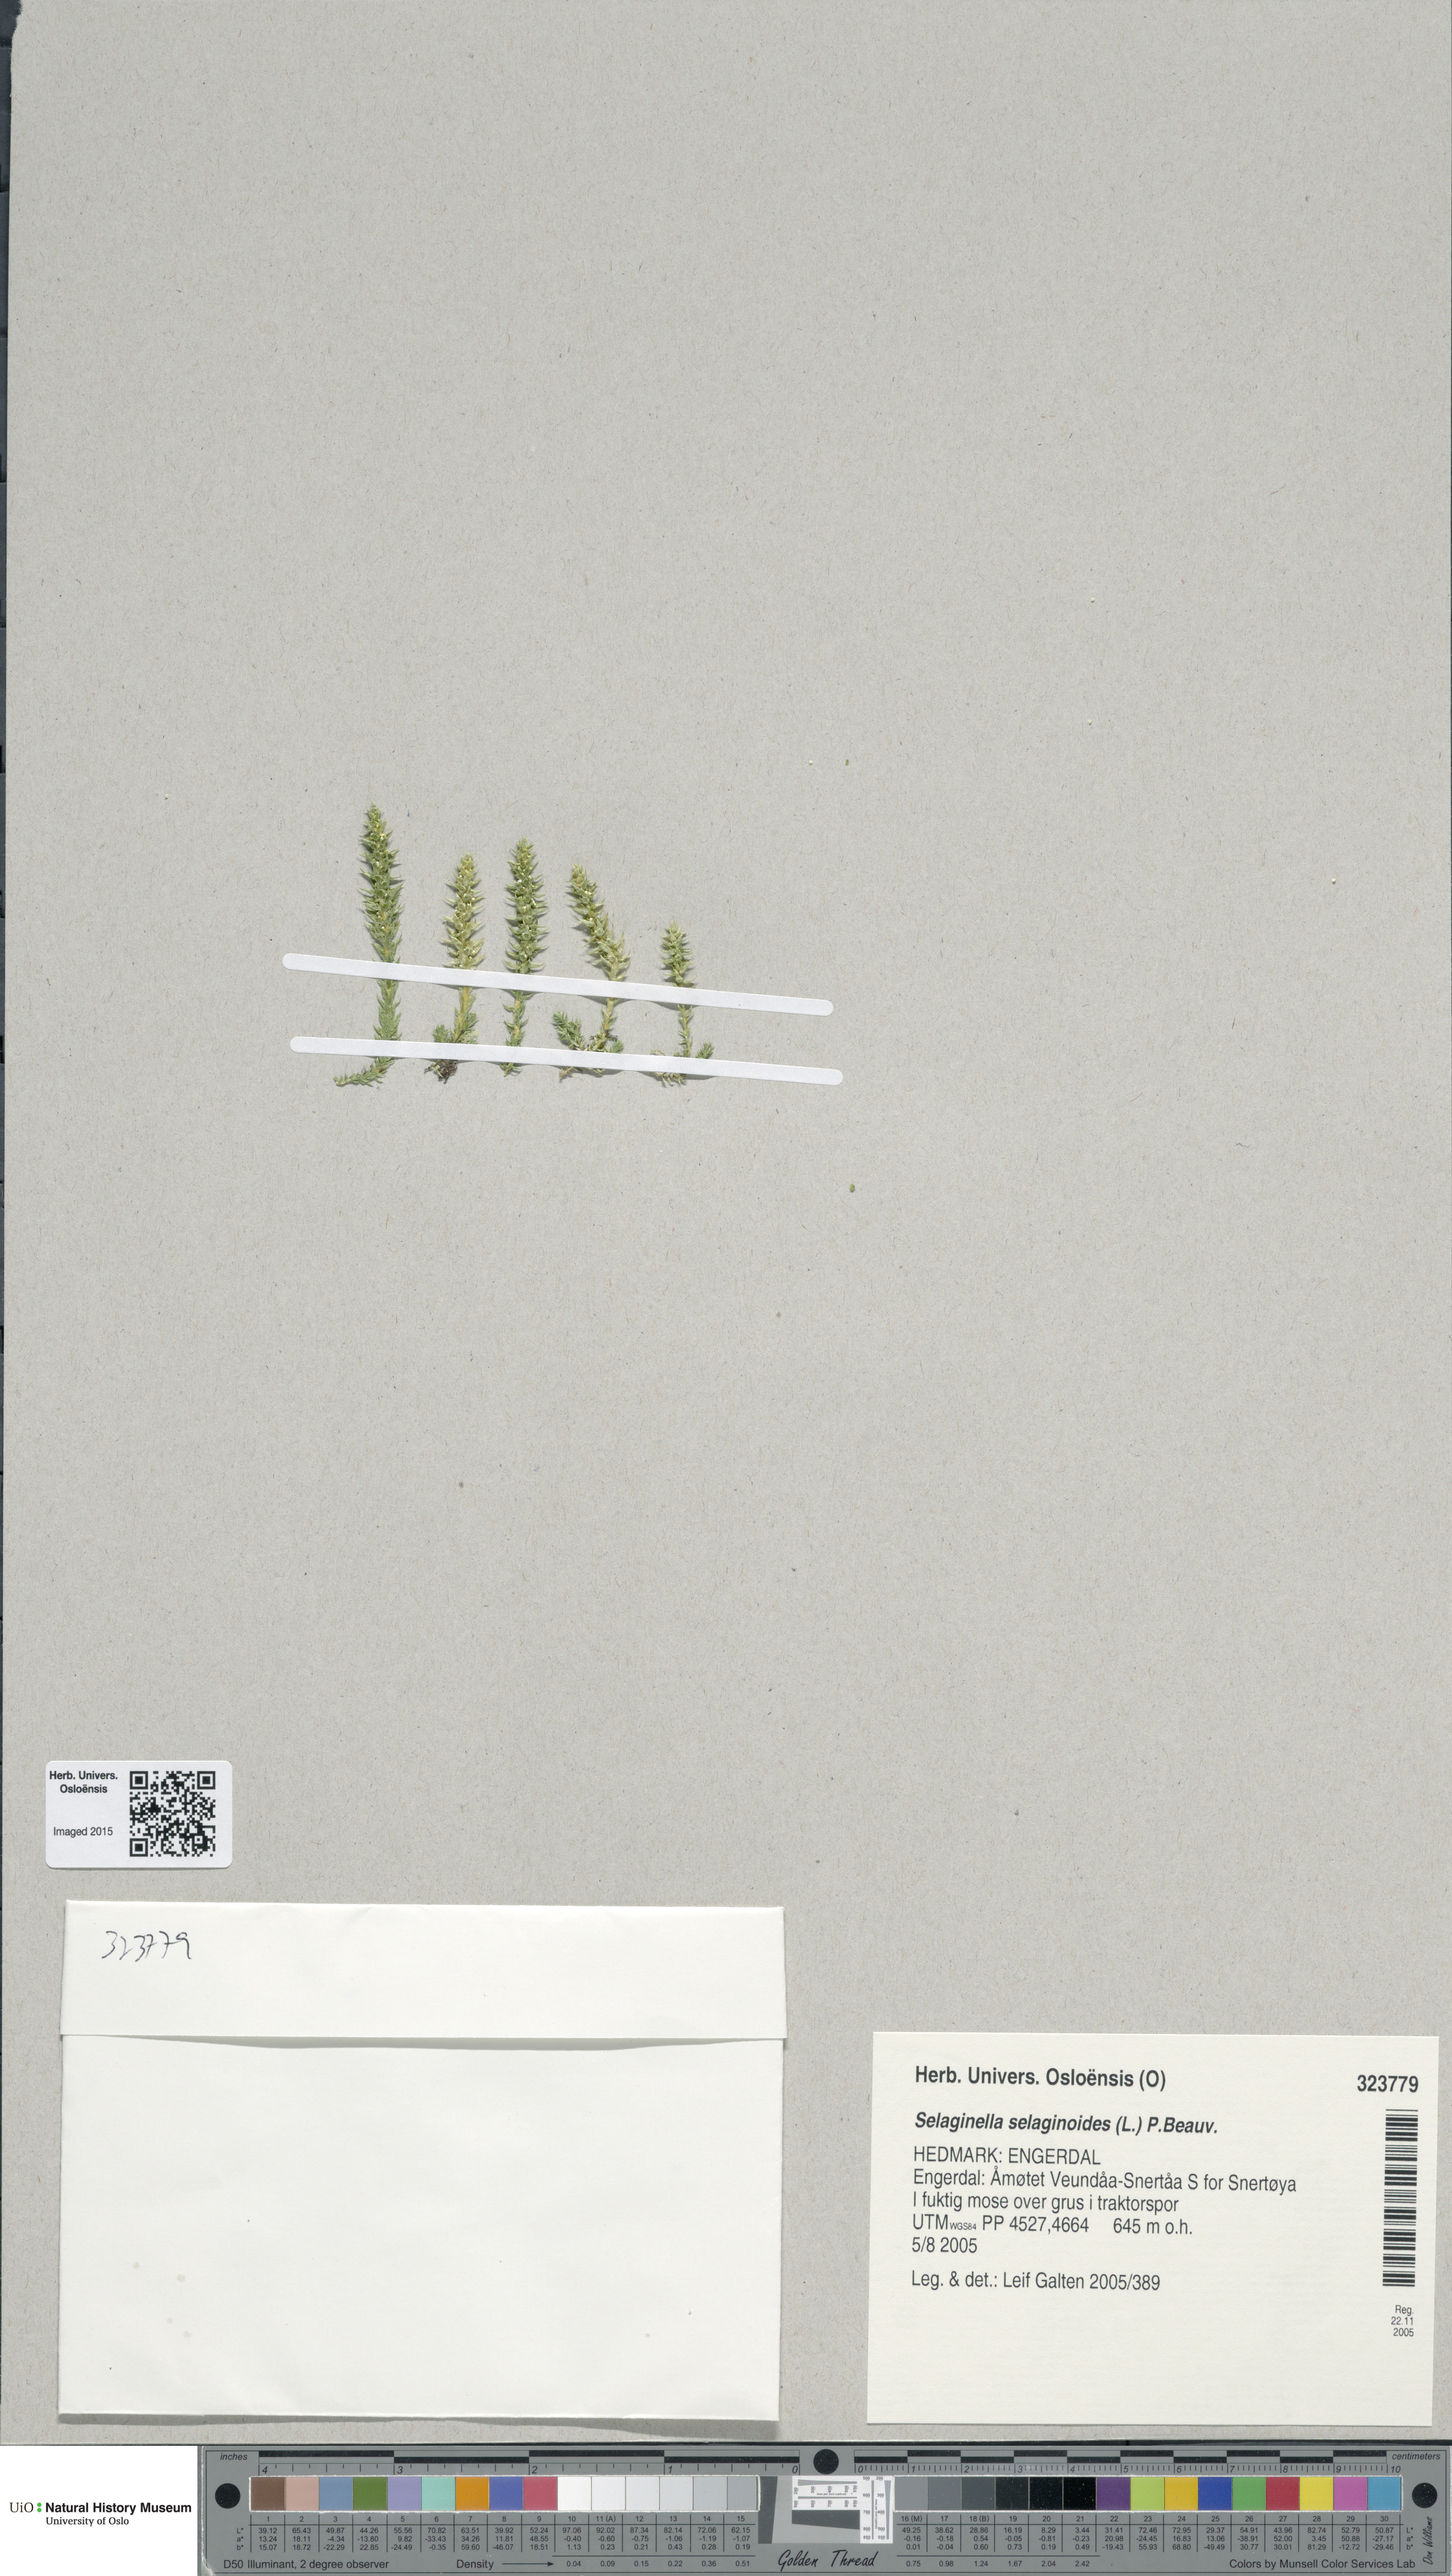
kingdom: Plantae
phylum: Tracheophyta
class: Lycopodiopsida
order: Selaginellales
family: Selaginellaceae
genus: Selaginella
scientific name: Selaginella selaginoides
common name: Prickly mountain-moss
